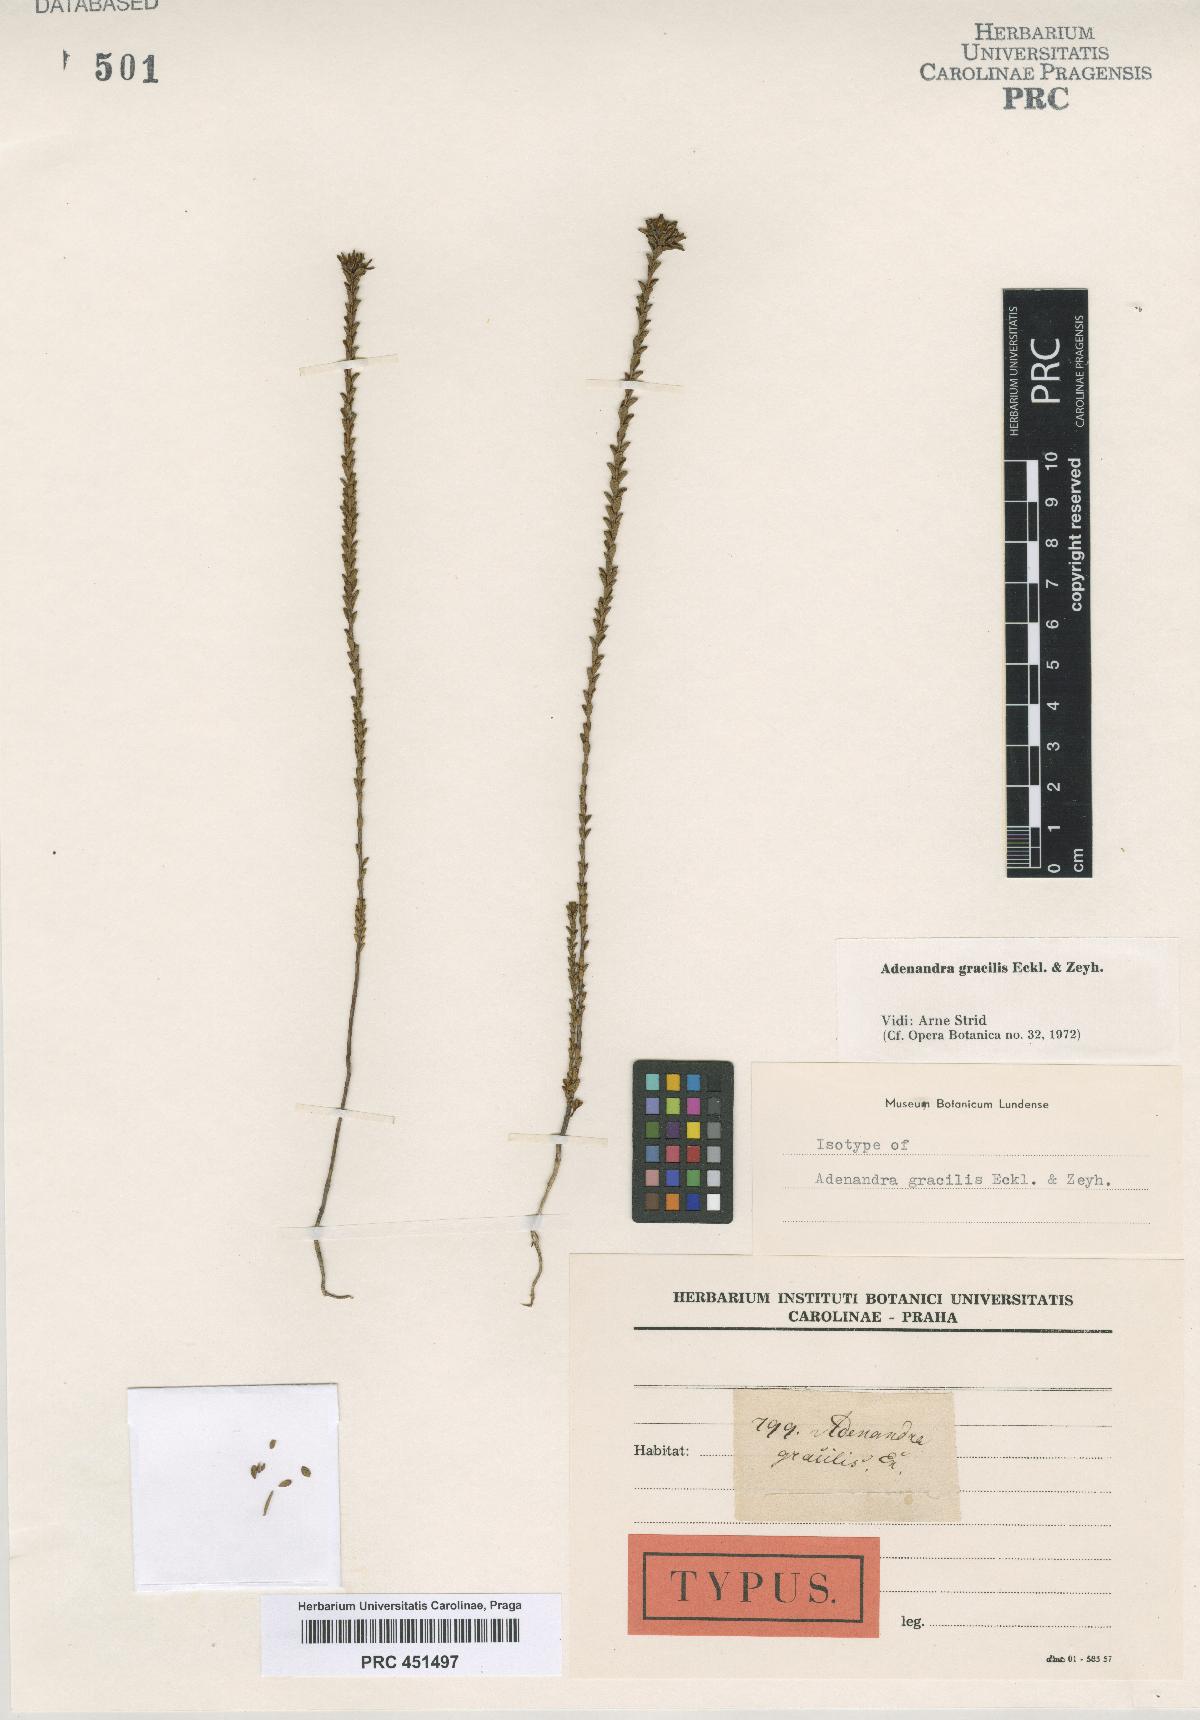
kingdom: Plantae
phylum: Tracheophyta
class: Magnoliopsida
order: Sapindales
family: Rutaceae
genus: Adenandra
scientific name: Adenandra gracilis
